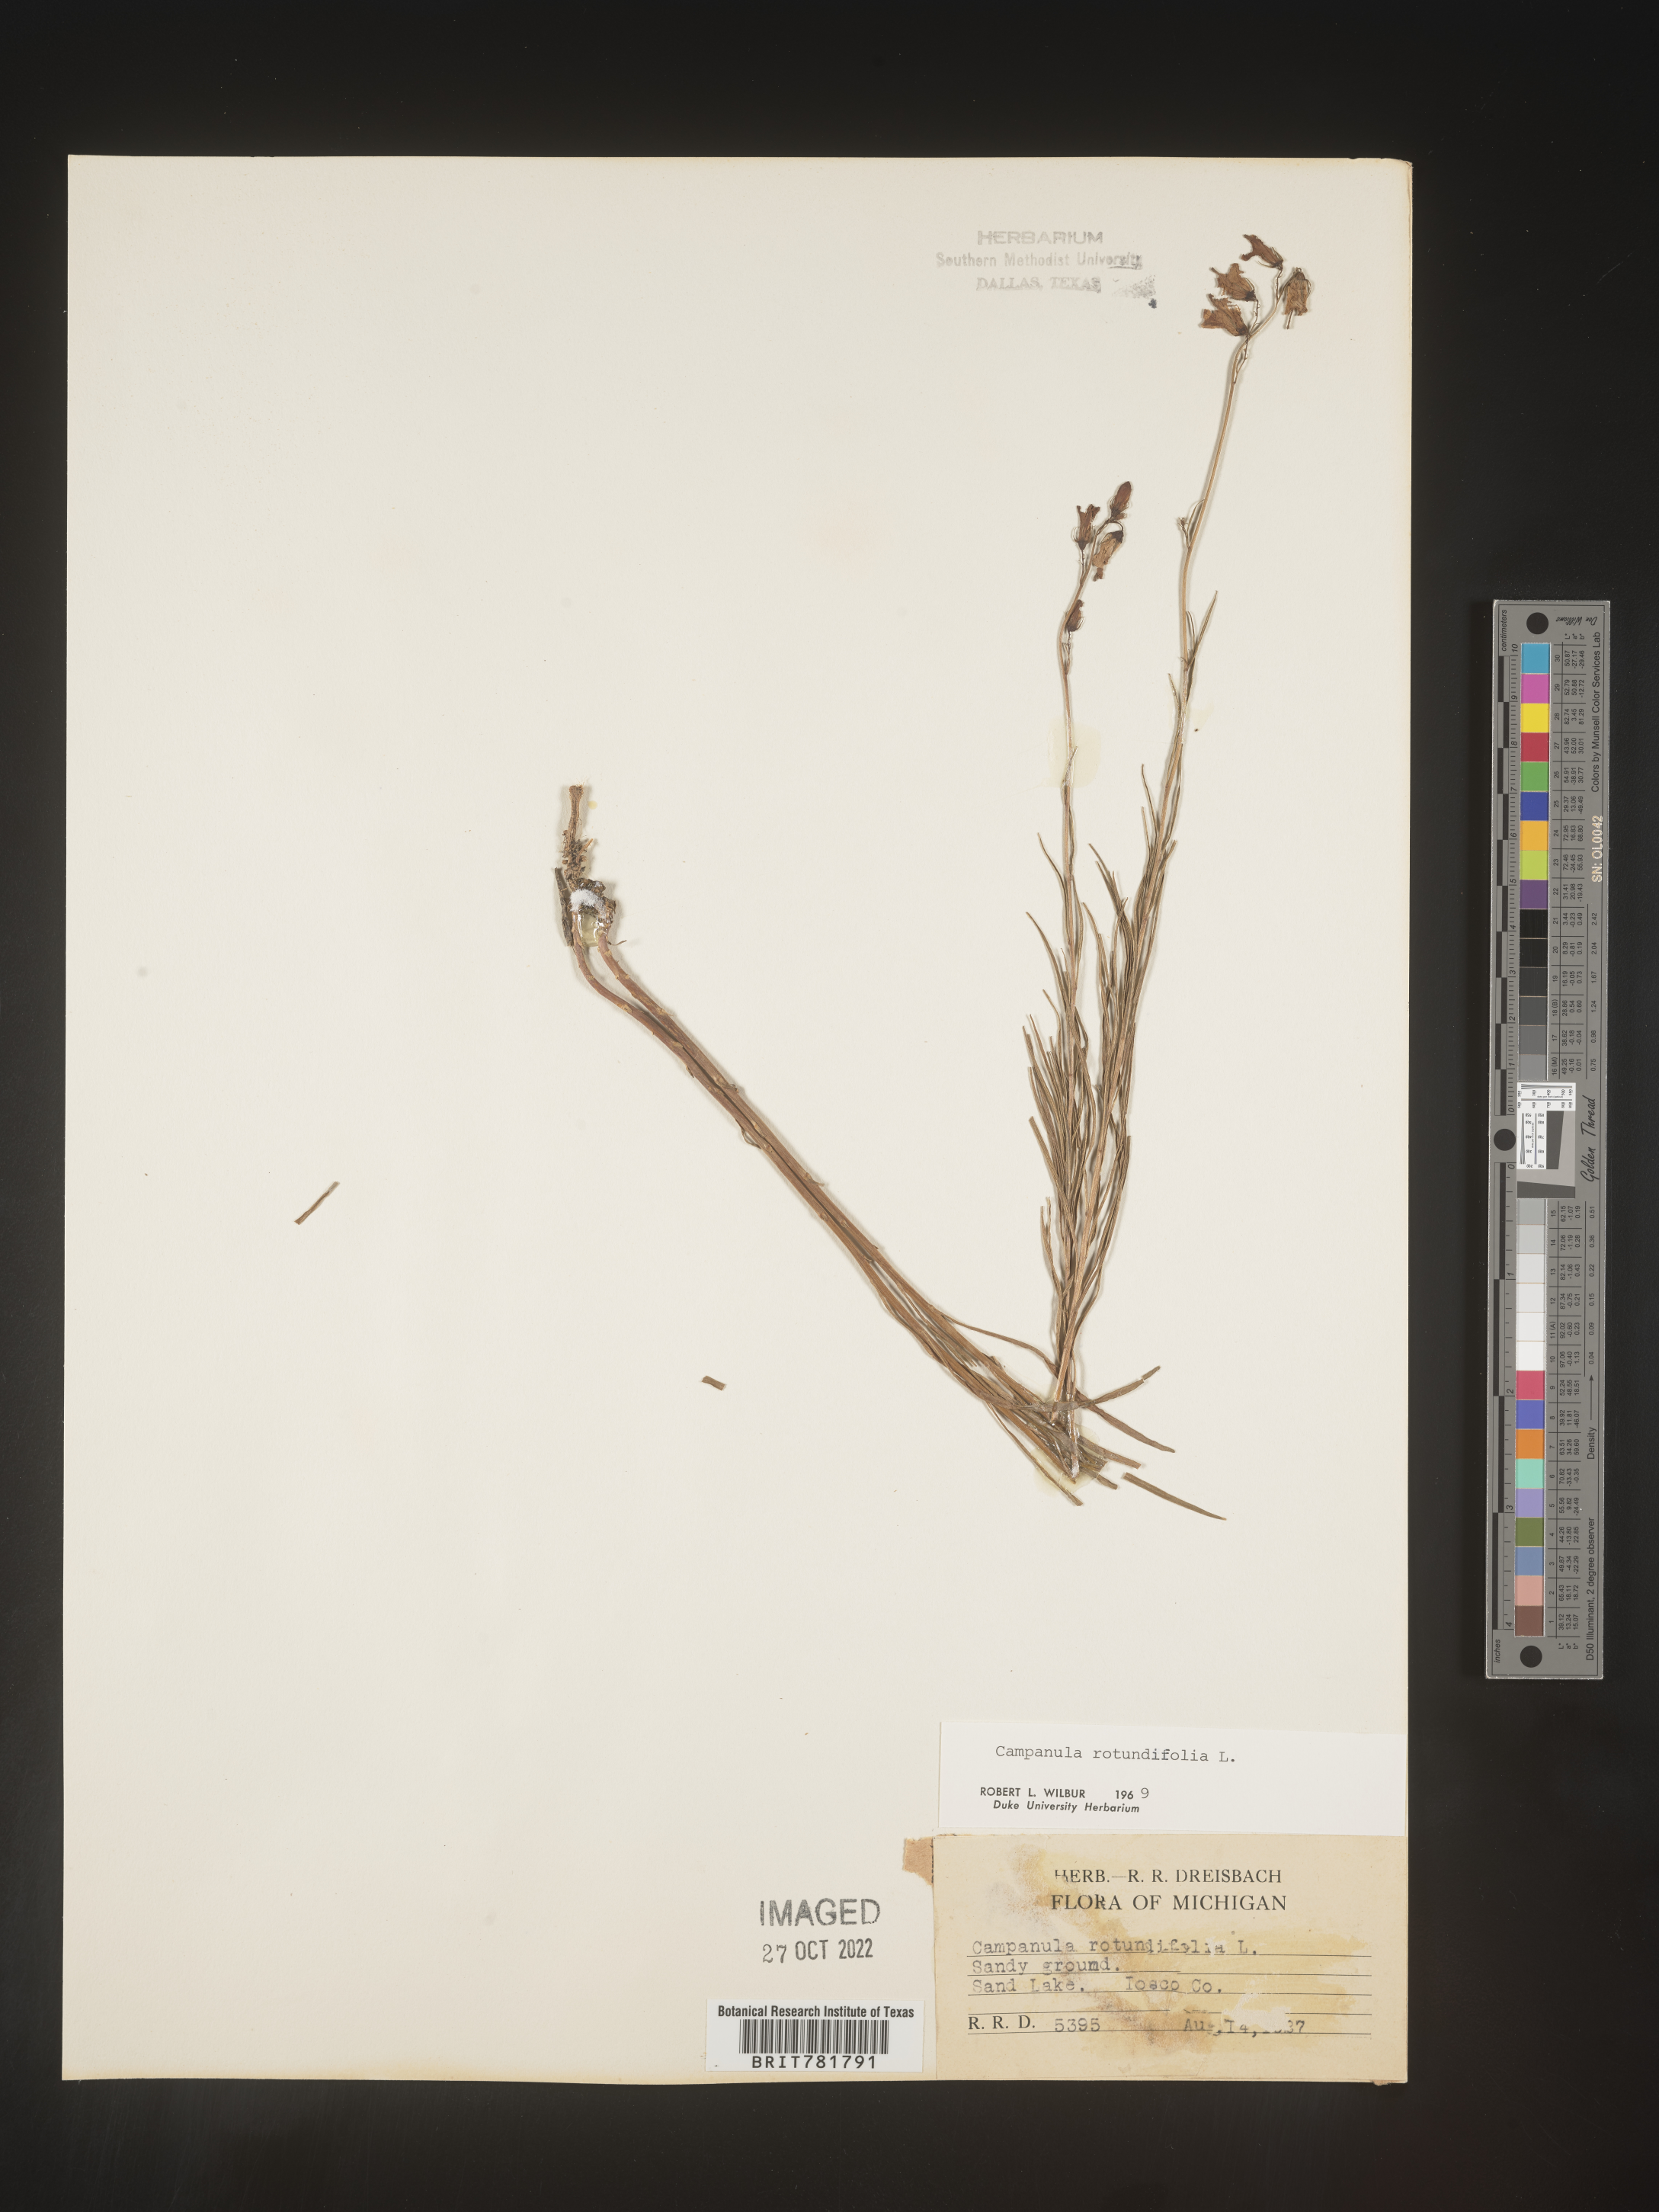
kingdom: Plantae
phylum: Tracheophyta
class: Magnoliopsida
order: Asterales
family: Campanulaceae
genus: Campanula
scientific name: Campanula rotundifolia
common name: Harebell
